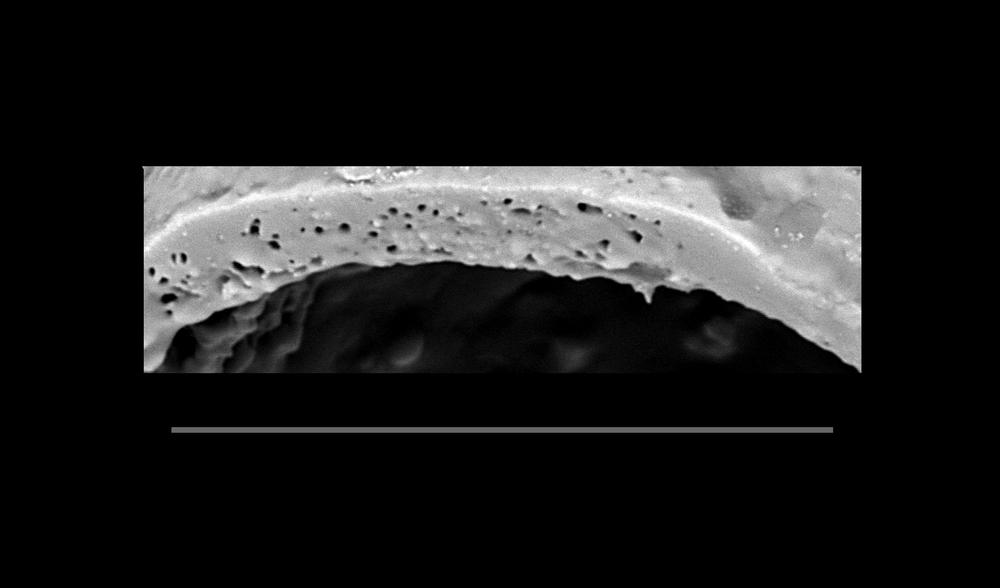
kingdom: Animalia
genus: Vikisphaera
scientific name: Vikisphaera
